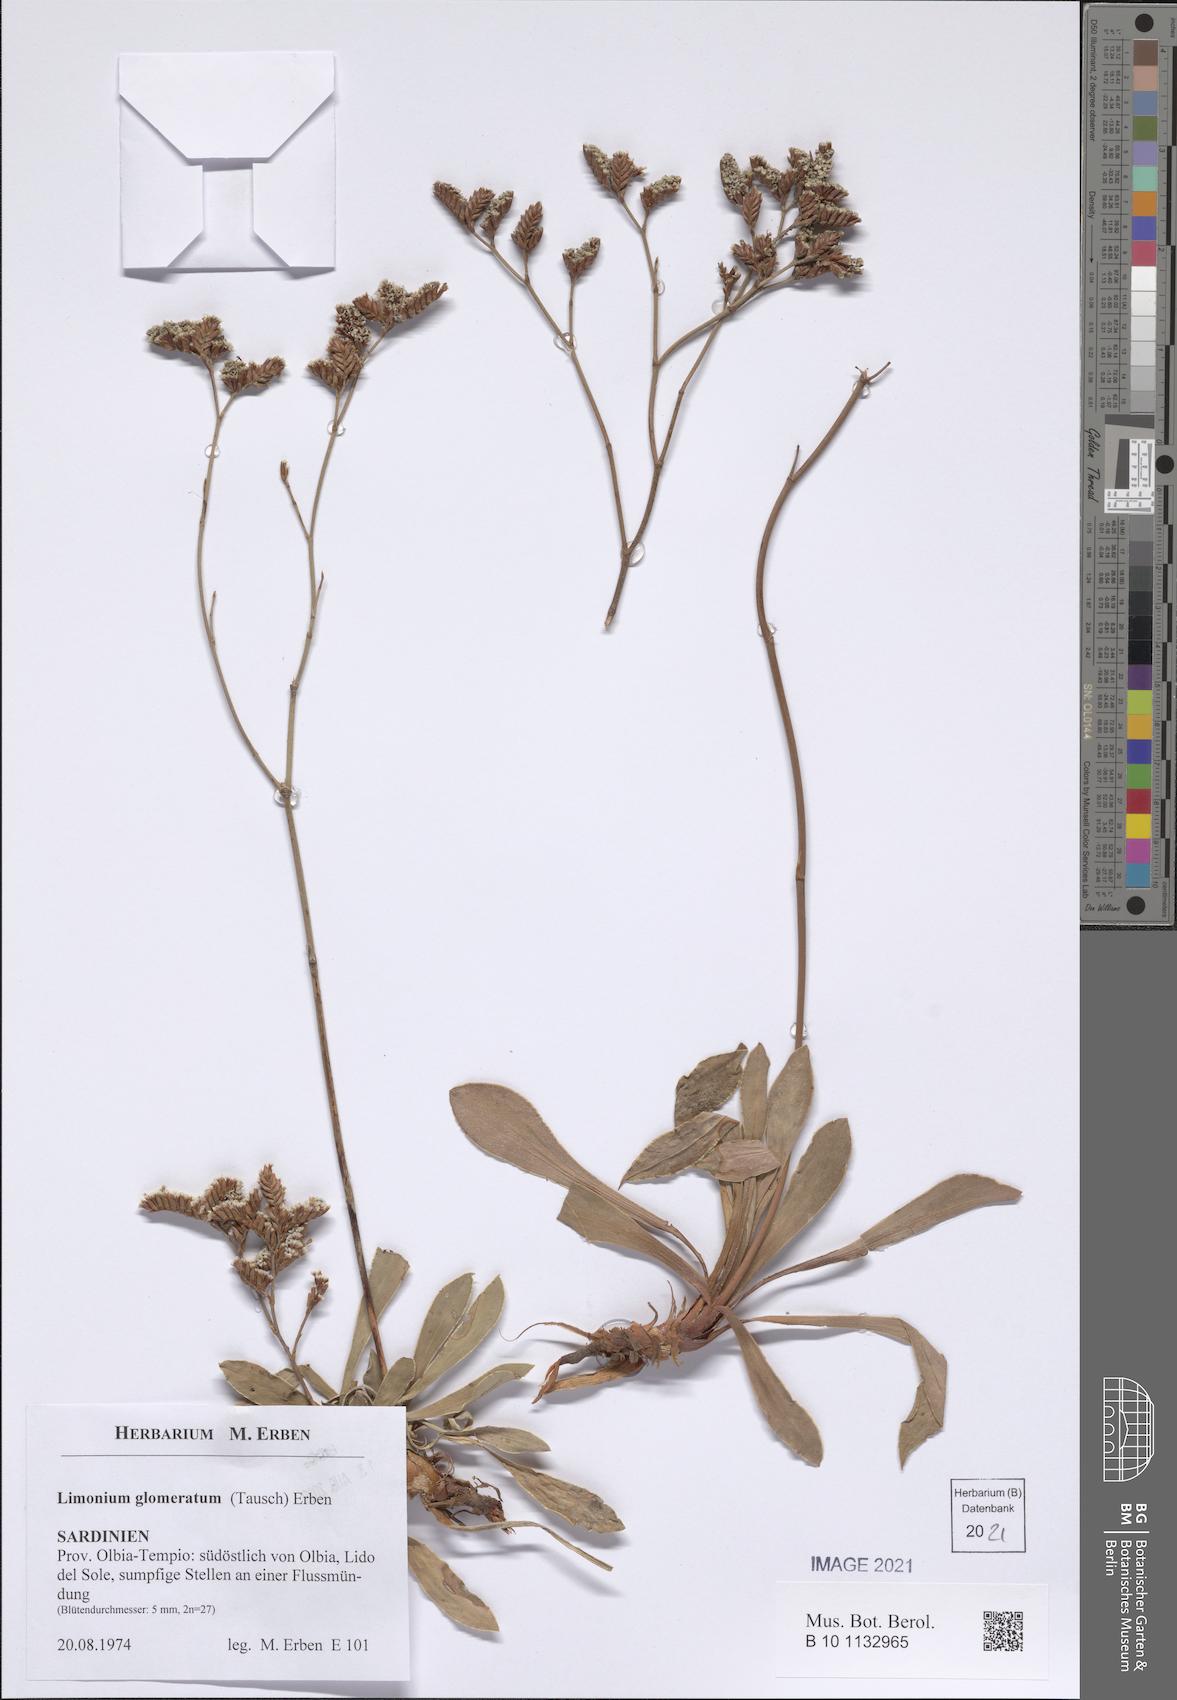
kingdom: Plantae
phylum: Tracheophyta
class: Magnoliopsida
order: Caryophyllales
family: Plumbaginaceae
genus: Limonium
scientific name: Limonium glomeratum
